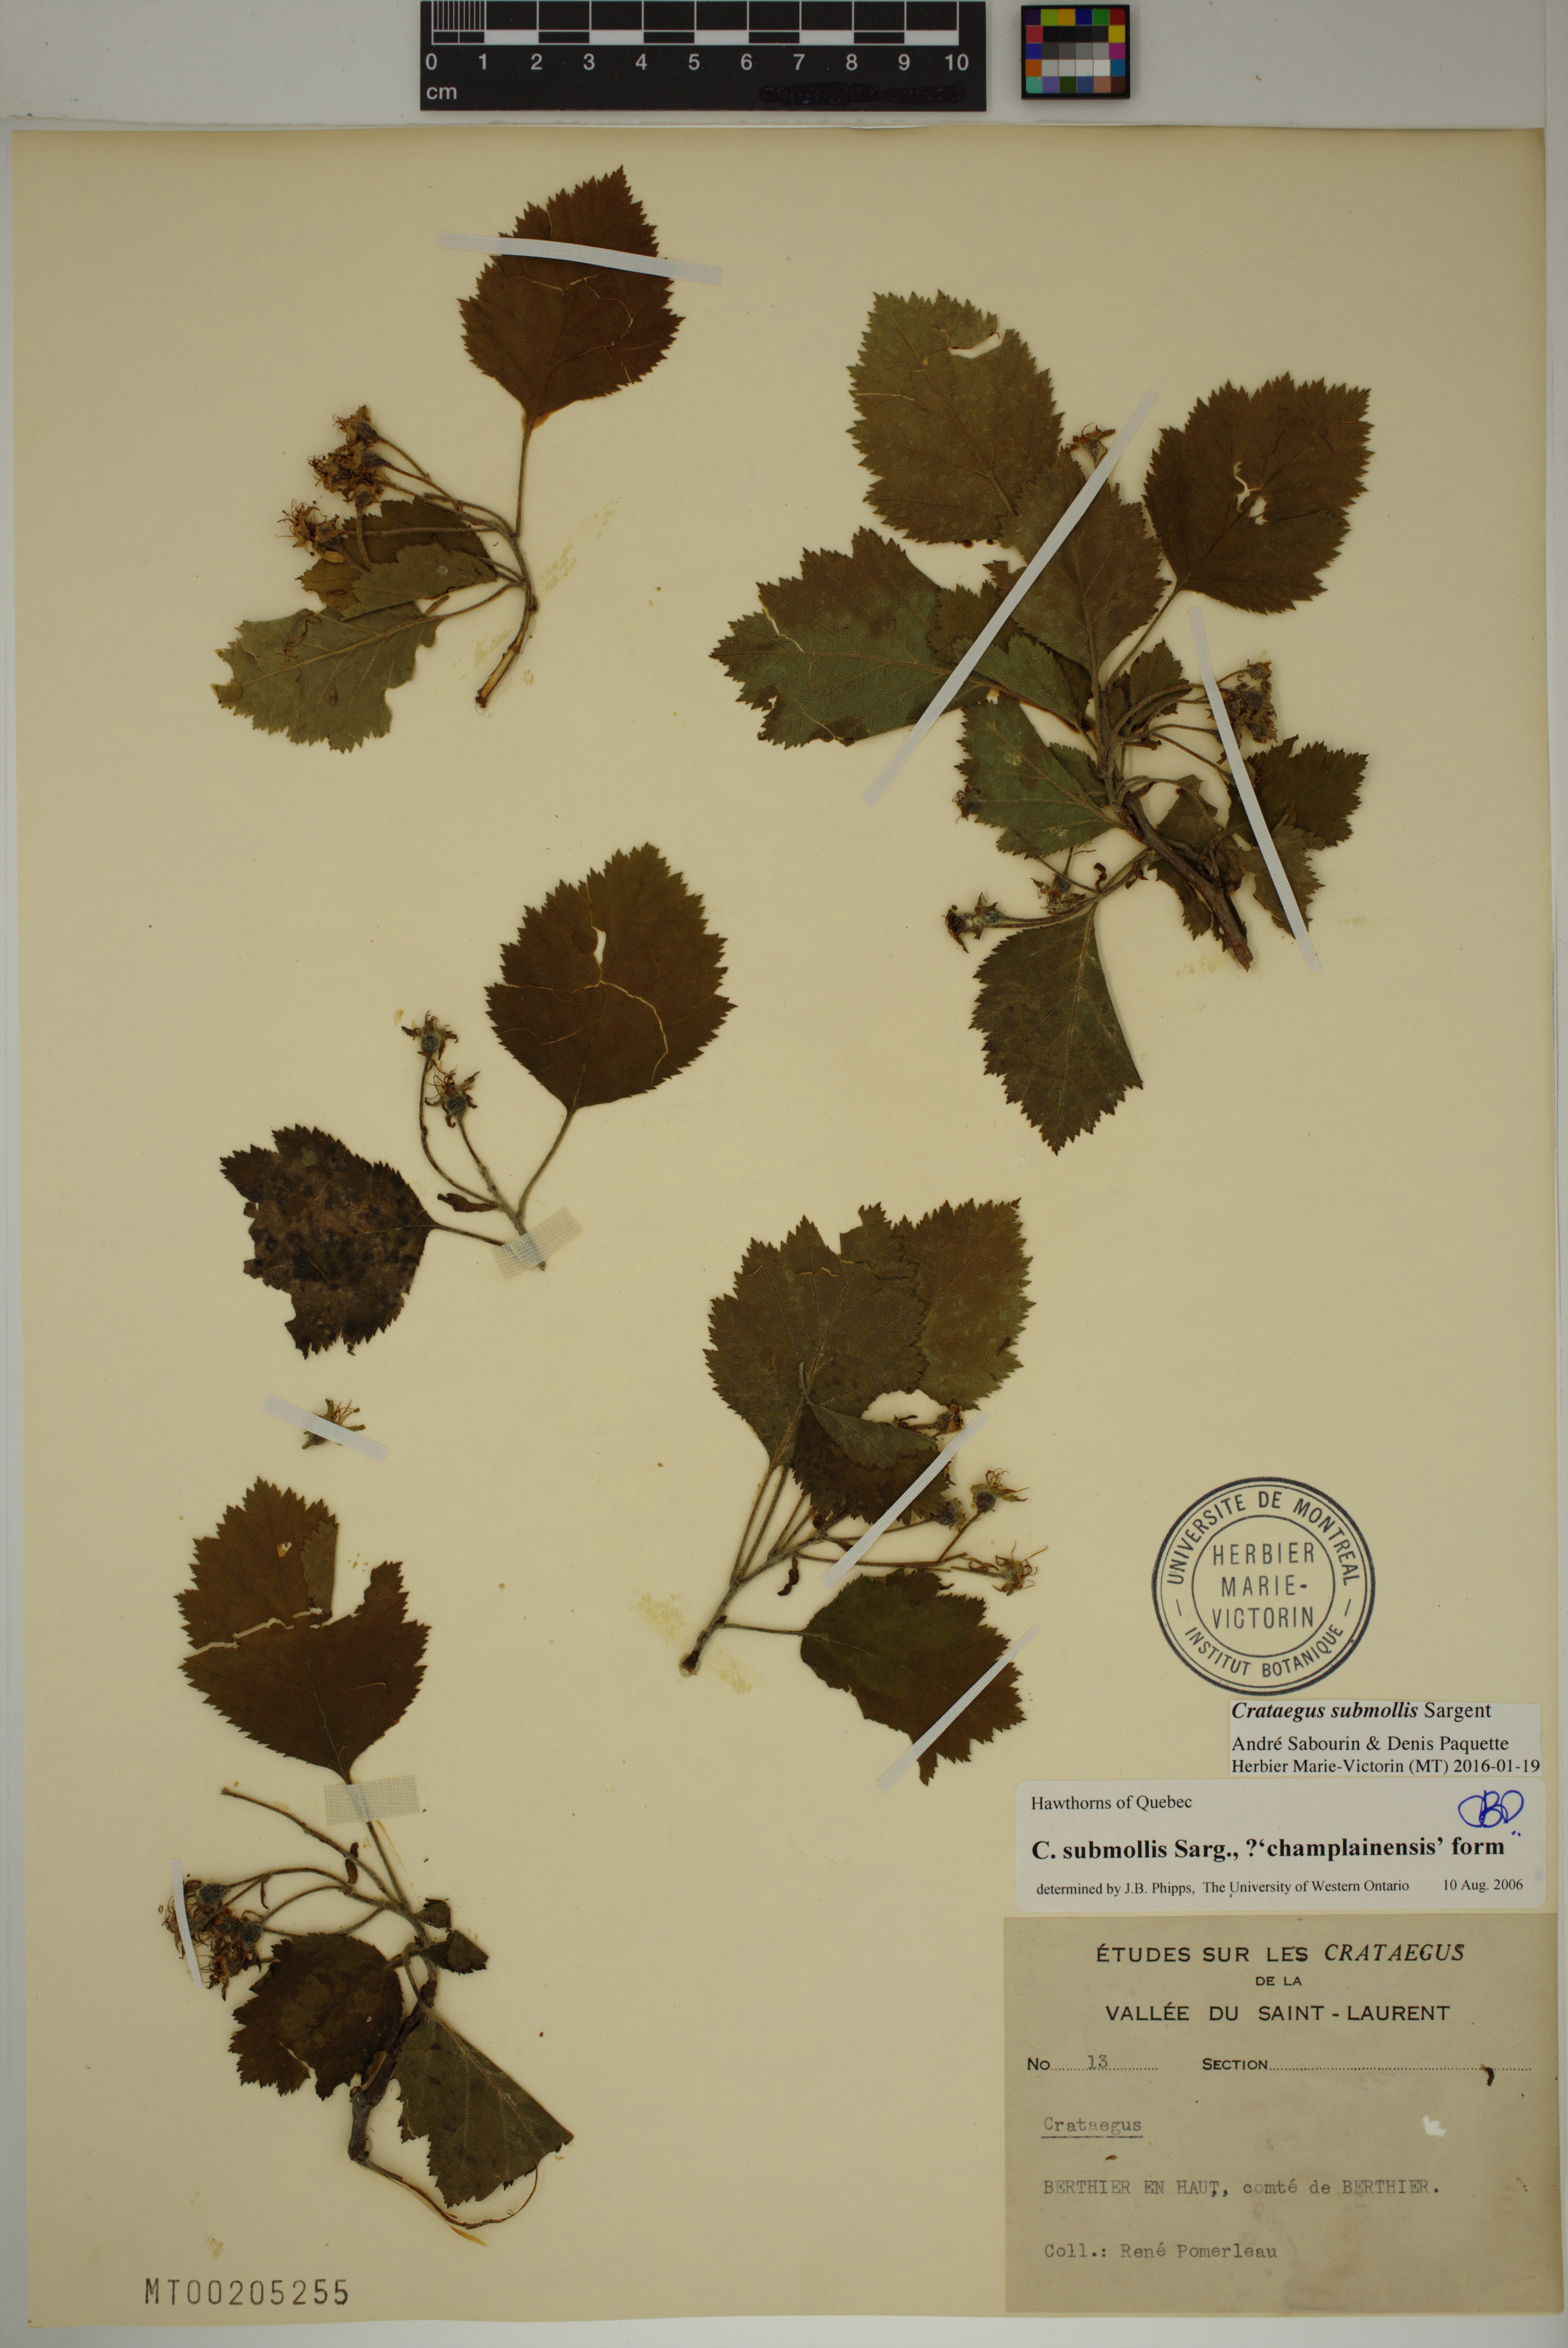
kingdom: Plantae
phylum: Tracheophyta
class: Magnoliopsida
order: Rosales
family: Rosaceae
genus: Crataegus
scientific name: Crataegus submollis
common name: Hairy cockspurthorn
